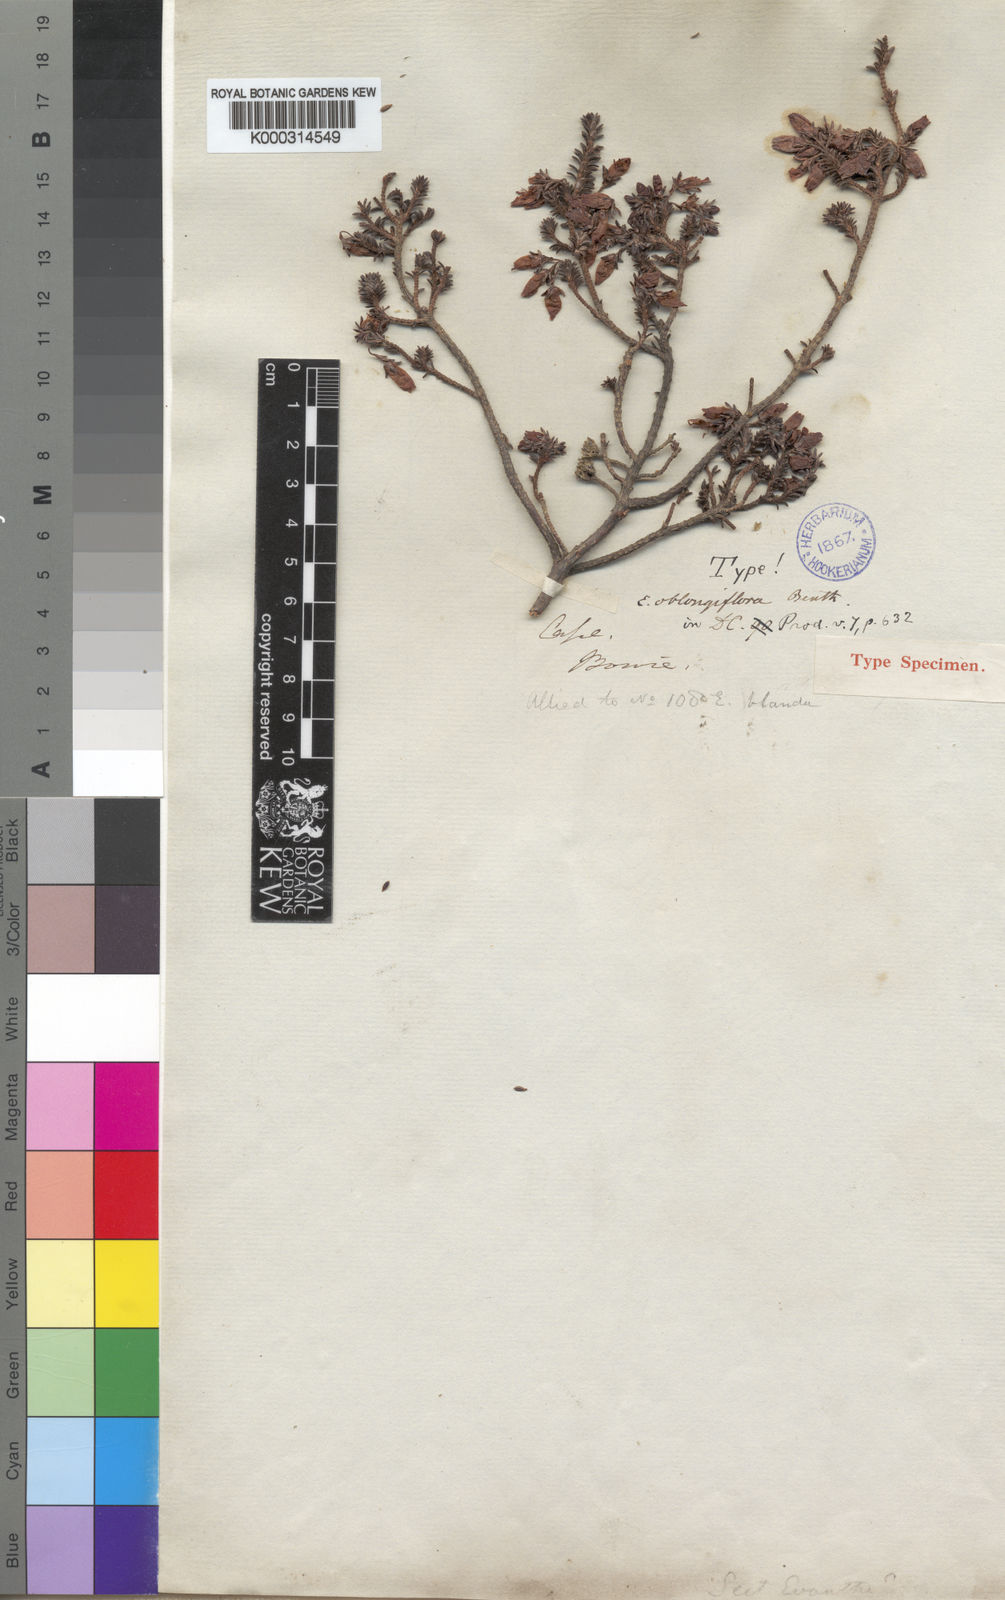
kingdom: Plantae
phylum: Tracheophyta
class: Magnoliopsida
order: Ericales
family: Ericaceae
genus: Erica
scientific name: Erica oblongiflora
